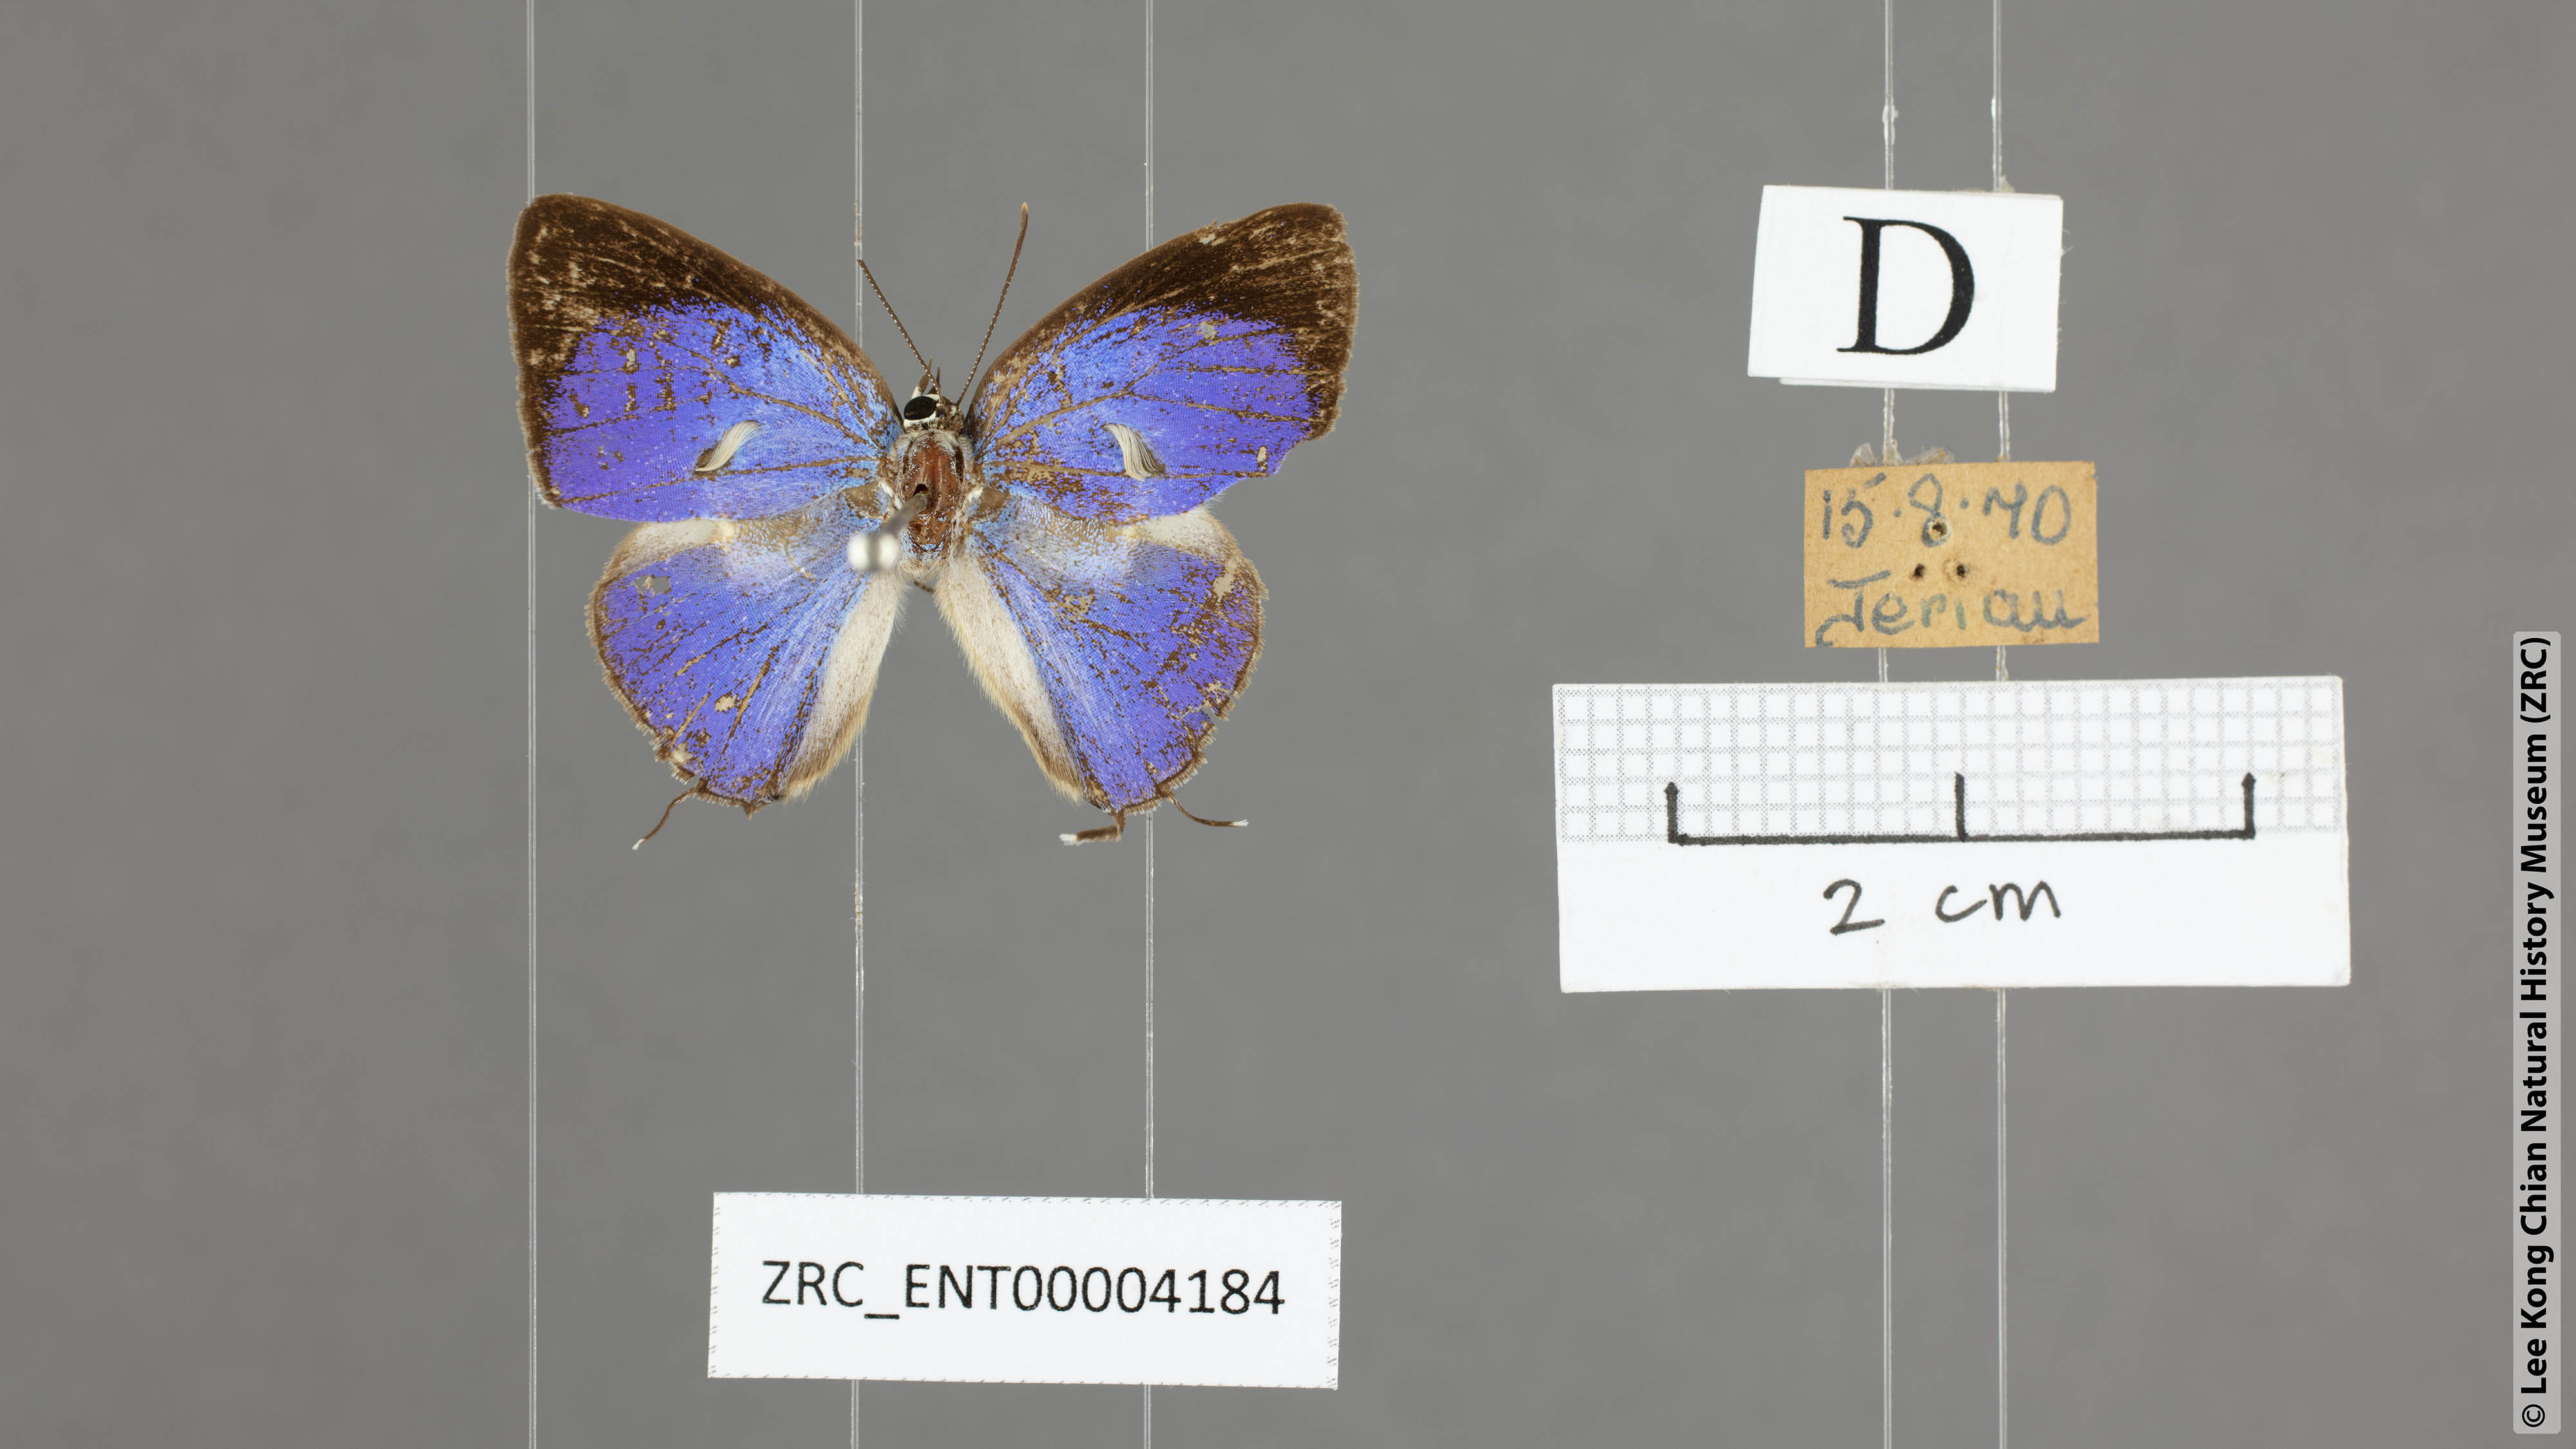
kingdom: Animalia
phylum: Arthropoda
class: Insecta
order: Lepidoptera
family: Lycaenidae
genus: Dacalana
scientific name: Dacalana vidura
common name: Medium-branded royal
